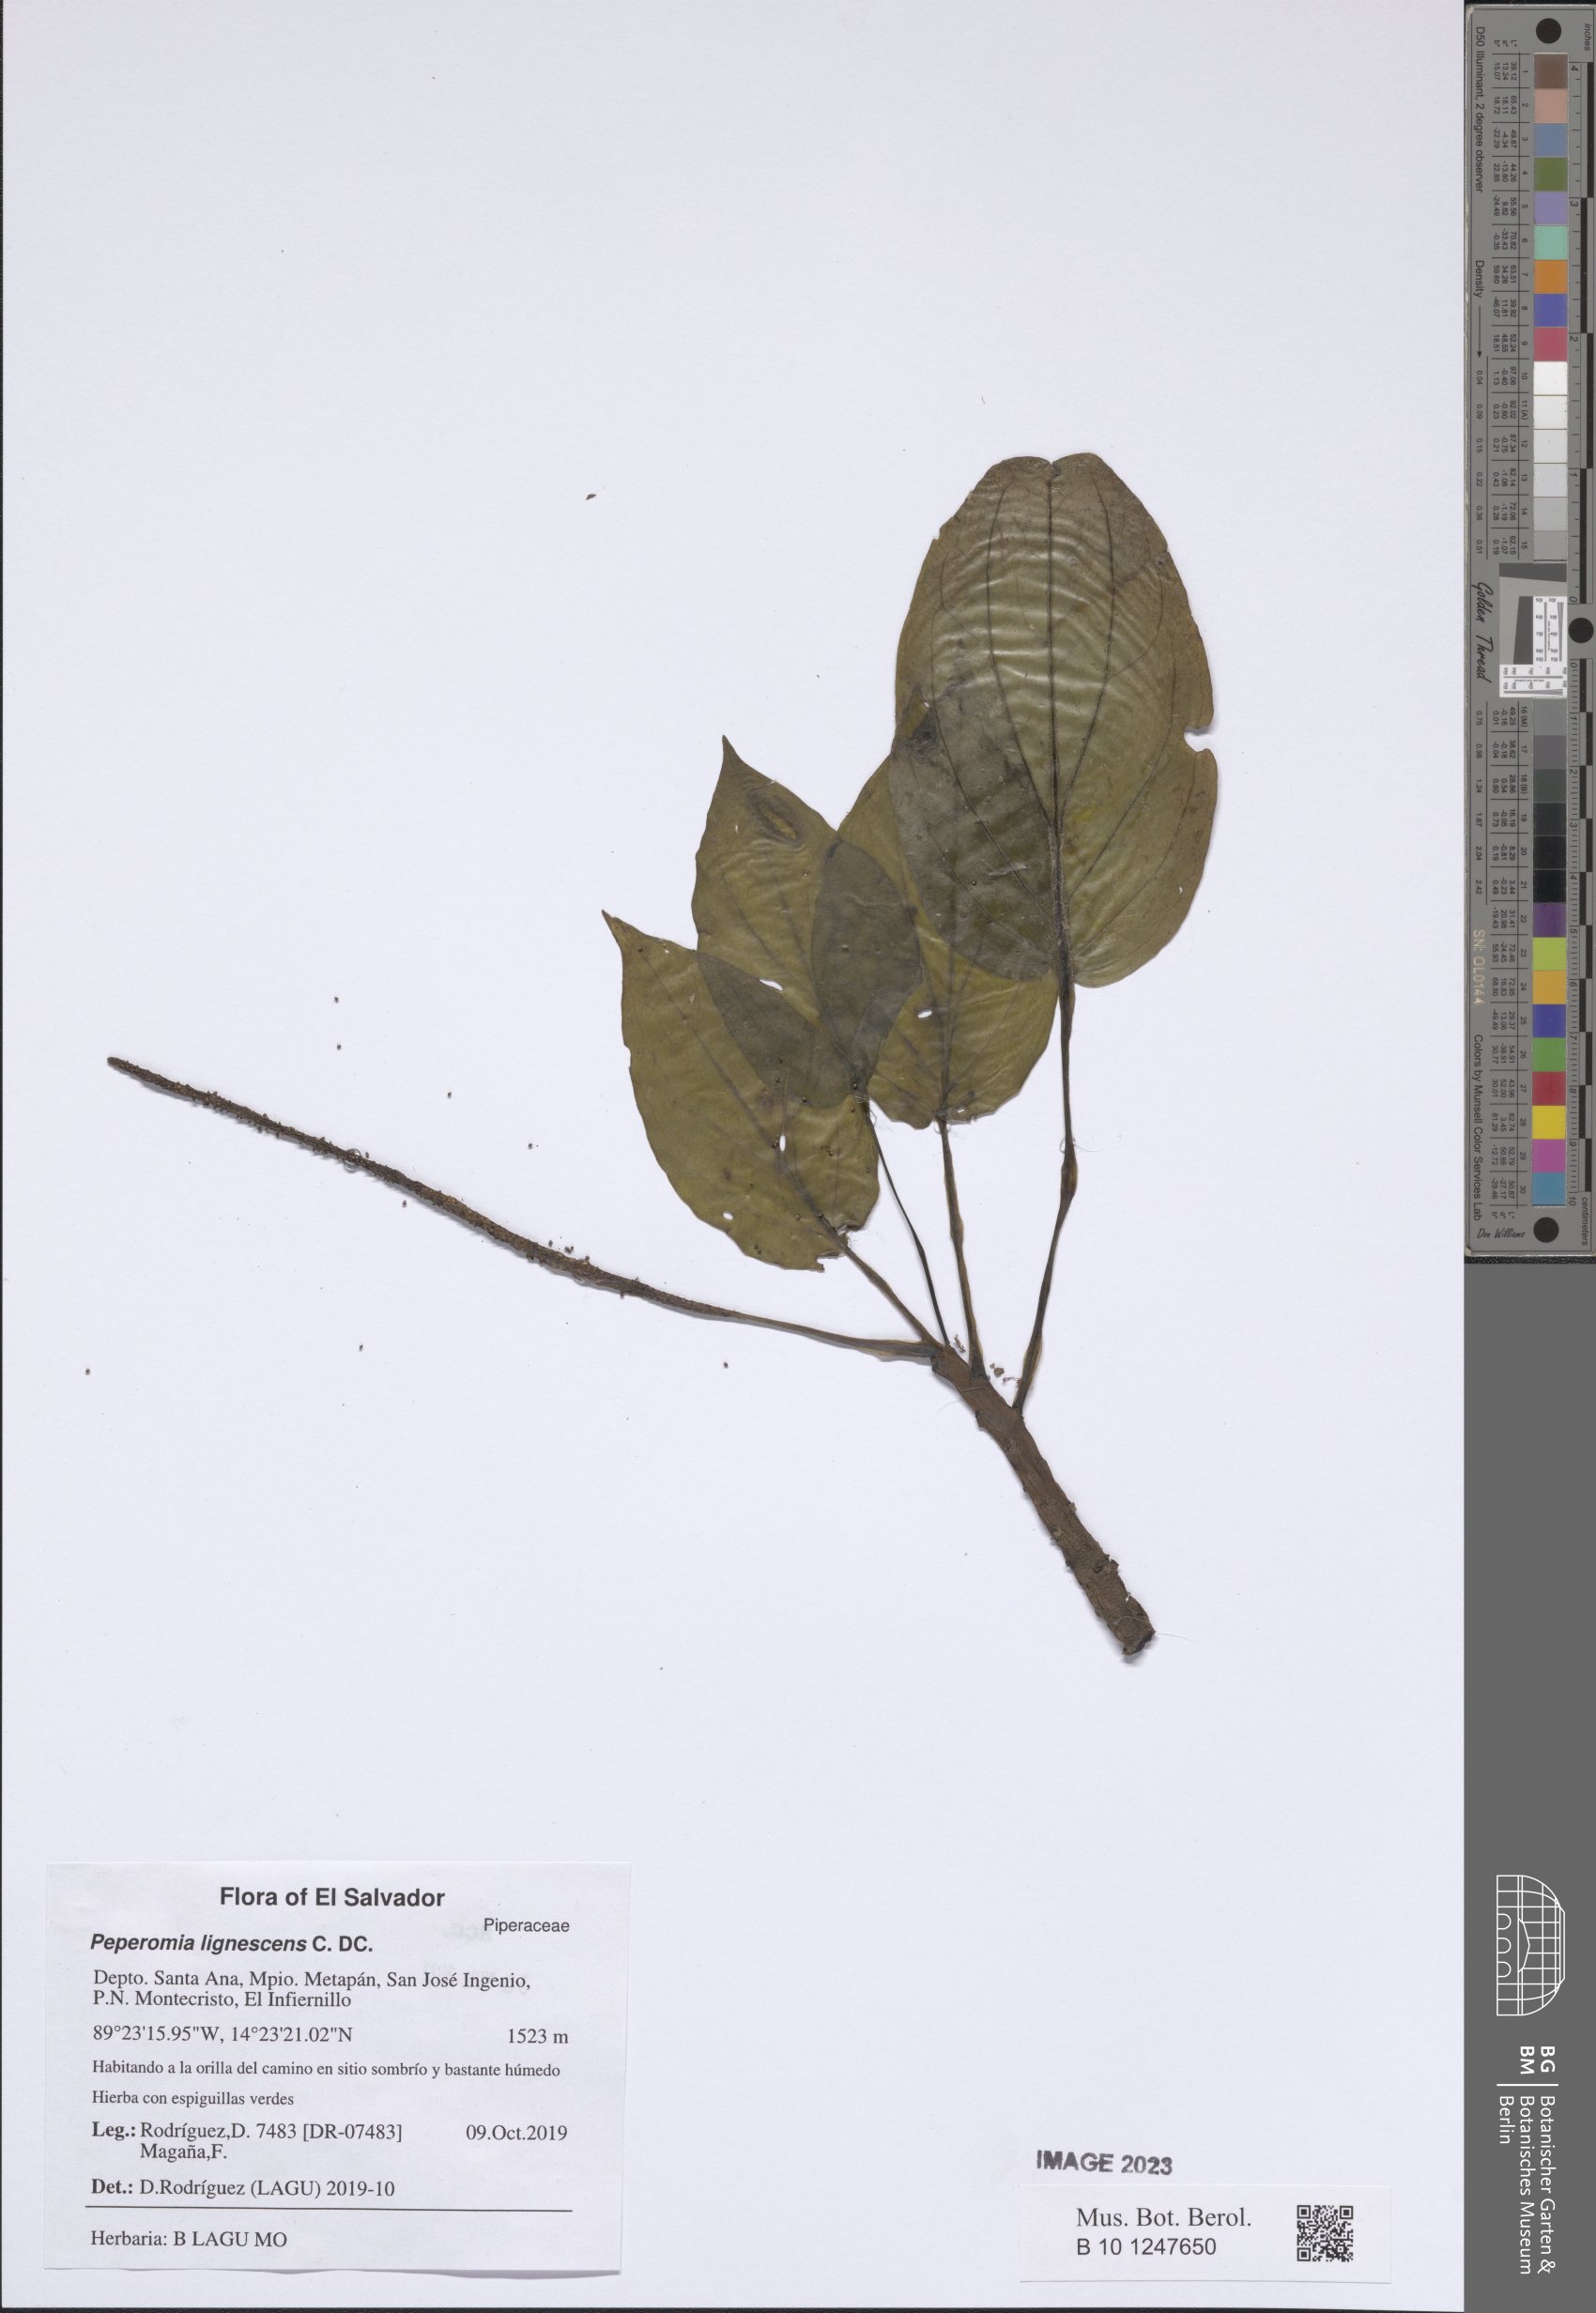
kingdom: Plantae
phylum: Tracheophyta
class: Magnoliopsida
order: Piperales
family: Piperaceae
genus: Peperomia
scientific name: Peperomia lignescens
